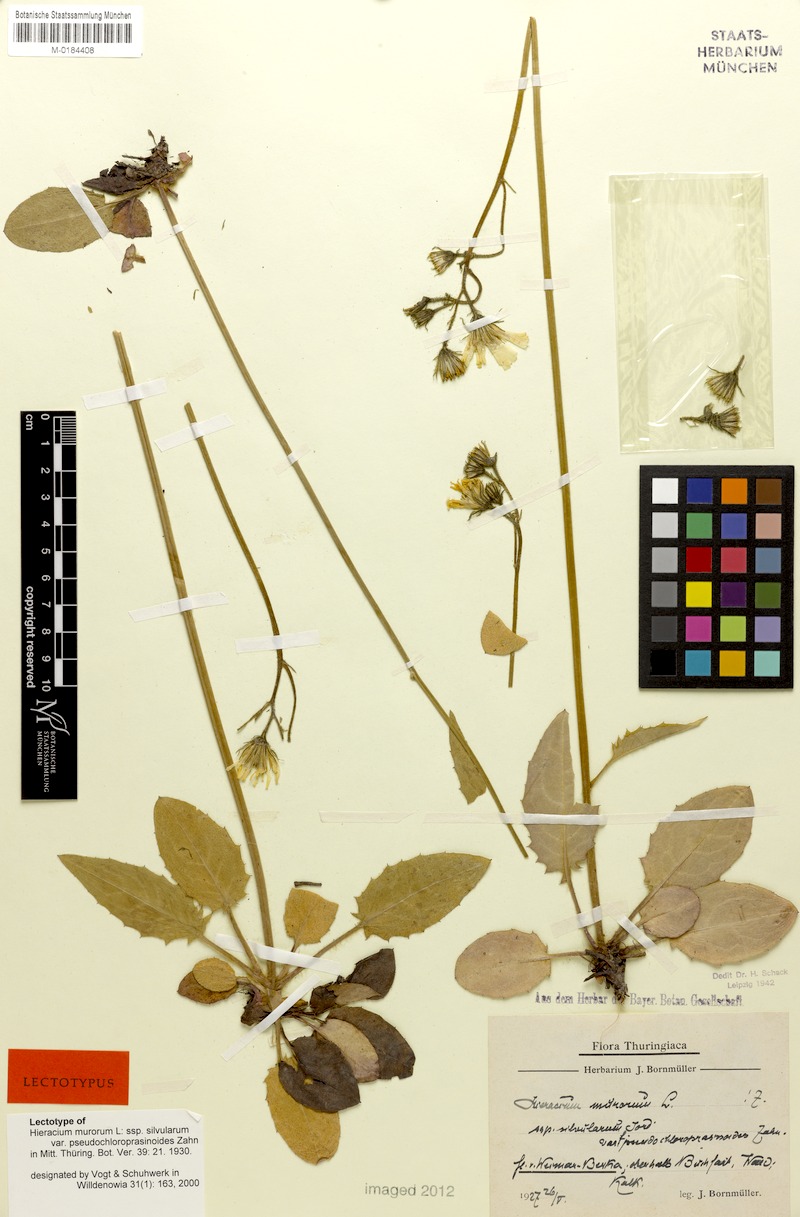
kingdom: Plantae
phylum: Tracheophyta
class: Magnoliopsida
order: Asterales
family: Asteraceae
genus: Hieracium
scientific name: Hieracium murorum
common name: Wall hawkweed
